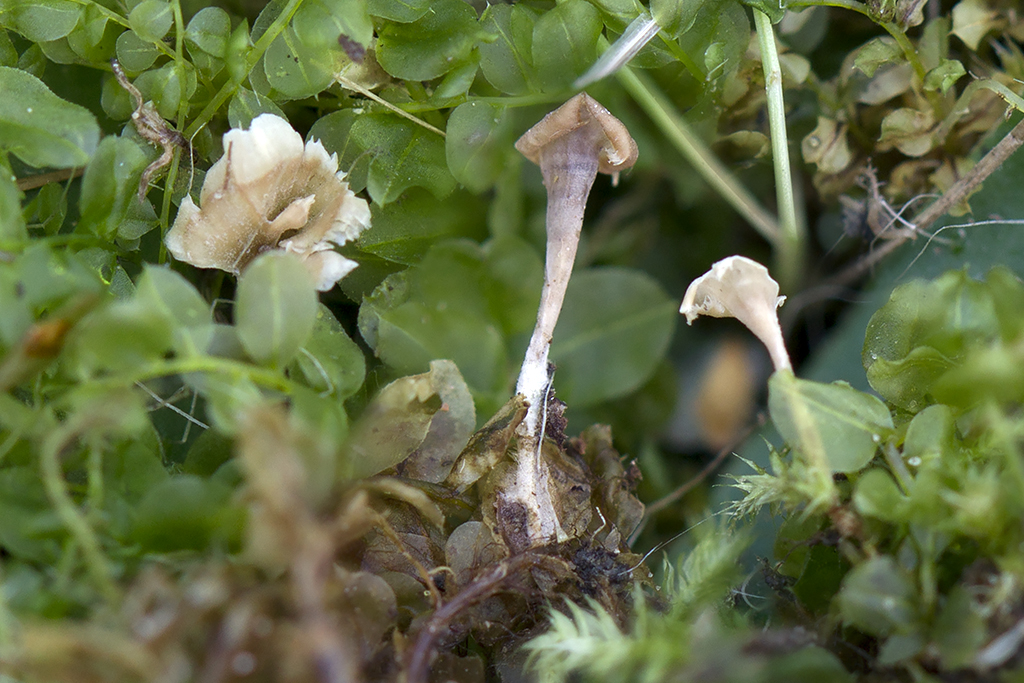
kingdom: Fungi
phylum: Basidiomycota
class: Agaricomycetes
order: Hymenochaetales
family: Rickenellaceae
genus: Cotylidia
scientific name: Cotylidia muscigena
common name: mos-navlesvamp
